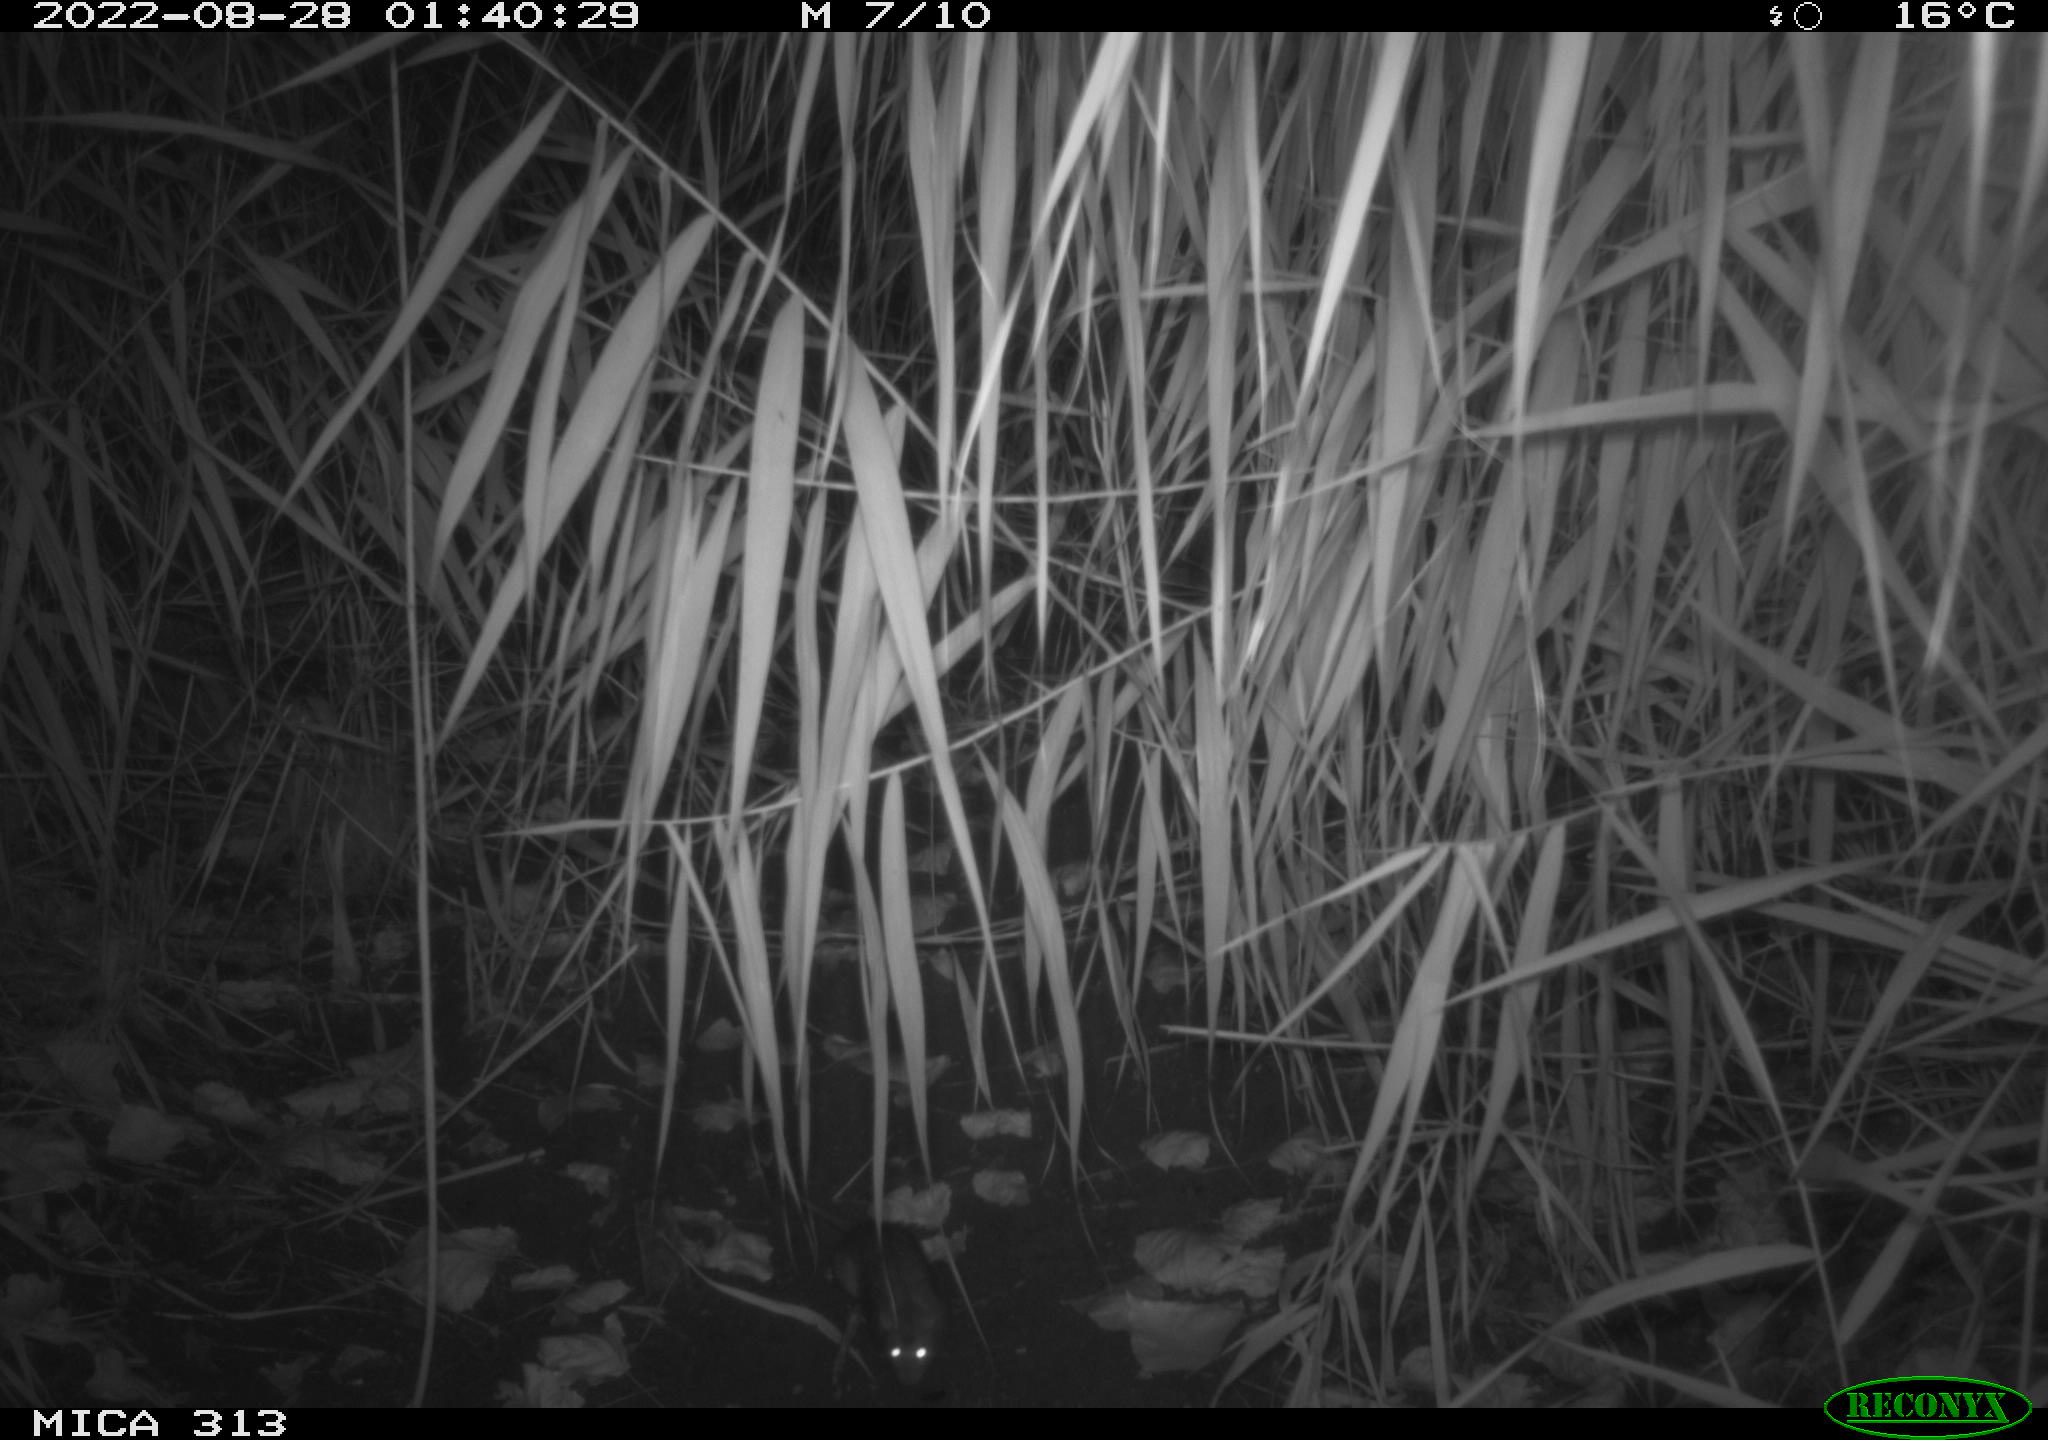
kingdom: Animalia
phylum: Chordata
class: Mammalia
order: Rodentia
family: Muridae
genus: Rattus
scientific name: Rattus norvegicus
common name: Brown rat
